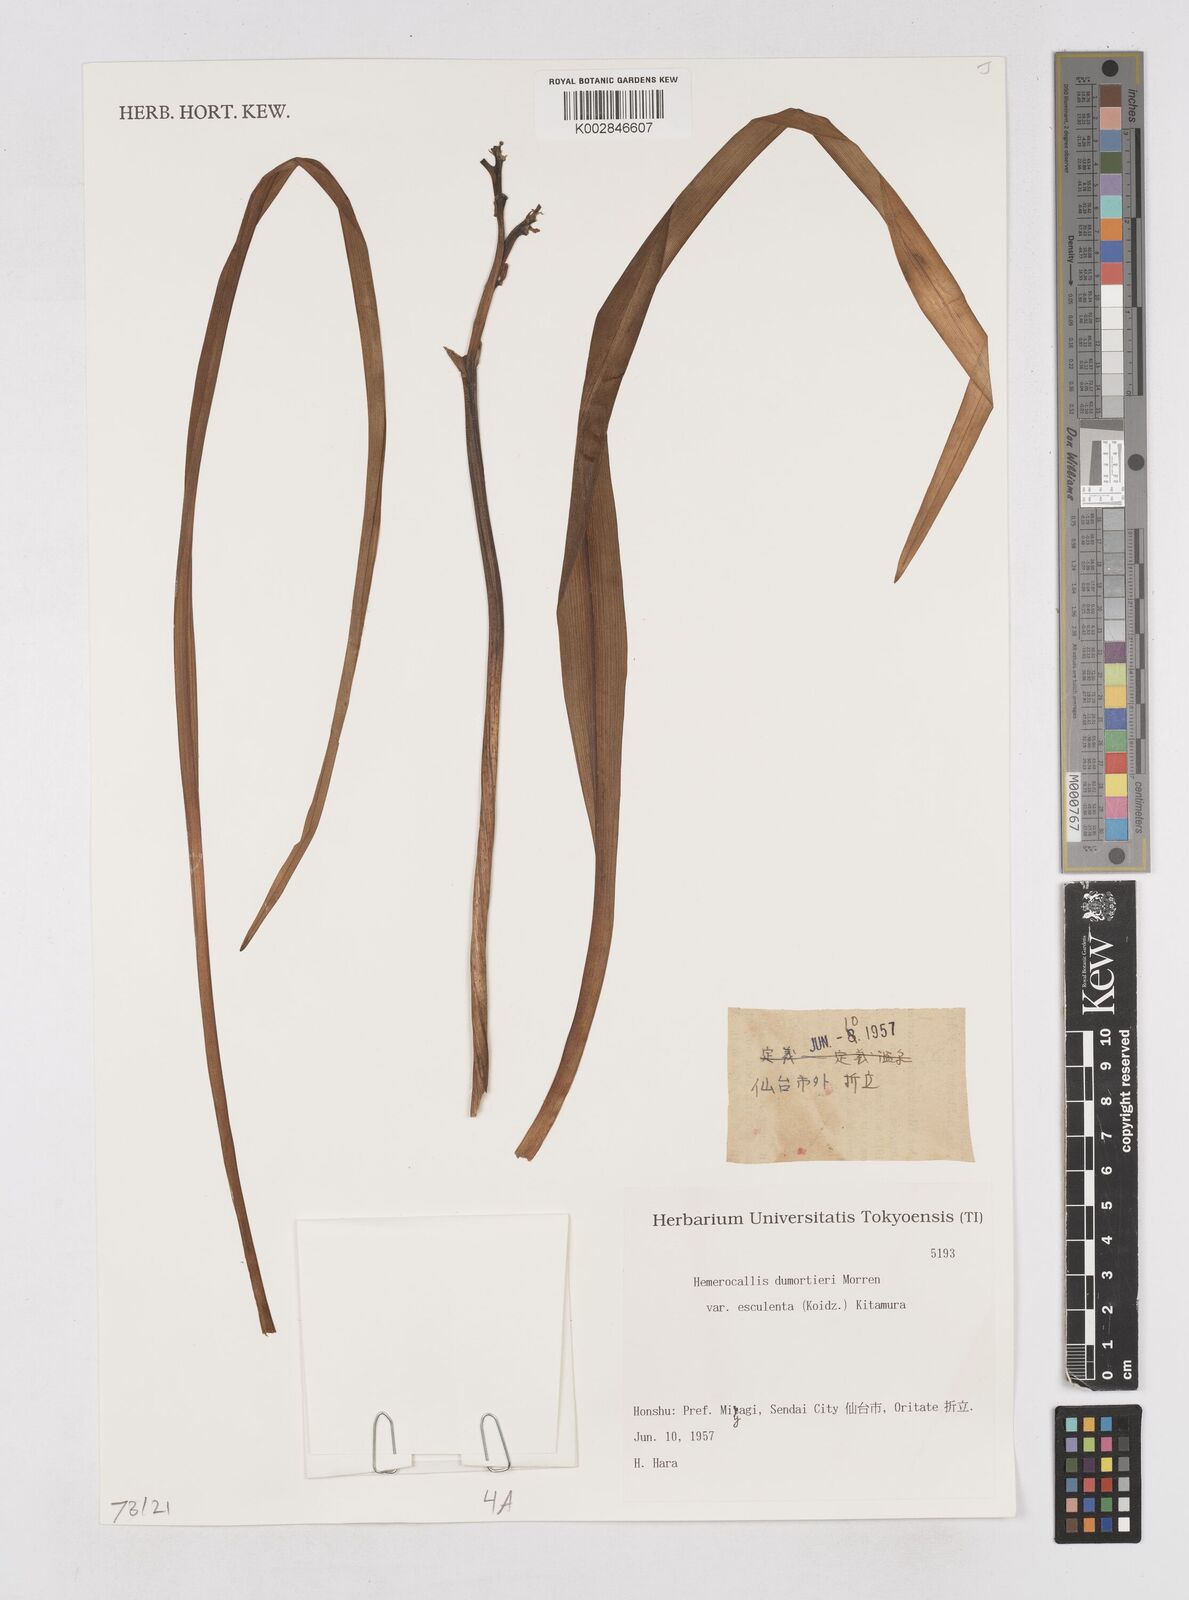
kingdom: Plantae
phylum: Tracheophyta
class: Liliopsida
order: Asparagales
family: Asphodelaceae
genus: Hemerocallis
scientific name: Hemerocallis dumortieri
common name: Dumortier's day-lily
